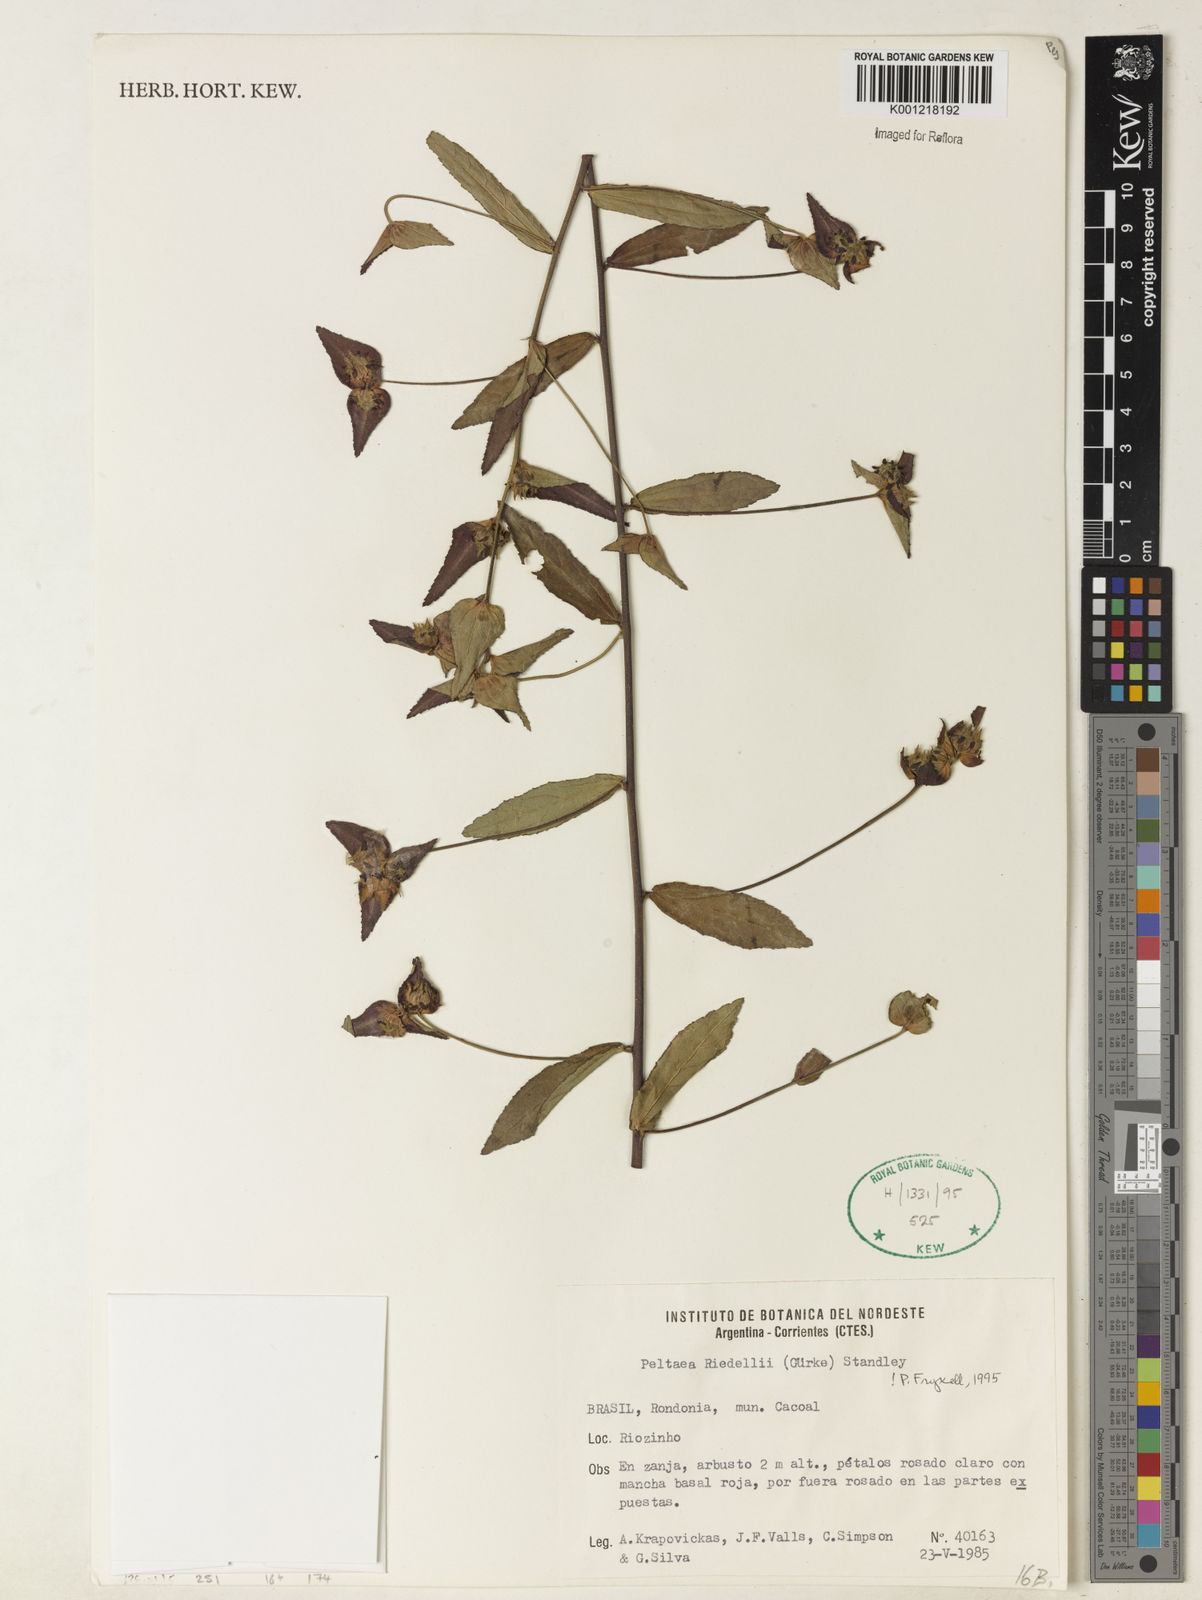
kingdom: Plantae
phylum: Tracheophyta
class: Magnoliopsida
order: Malvales
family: Malvaceae
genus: Peltaea
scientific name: Peltaea
